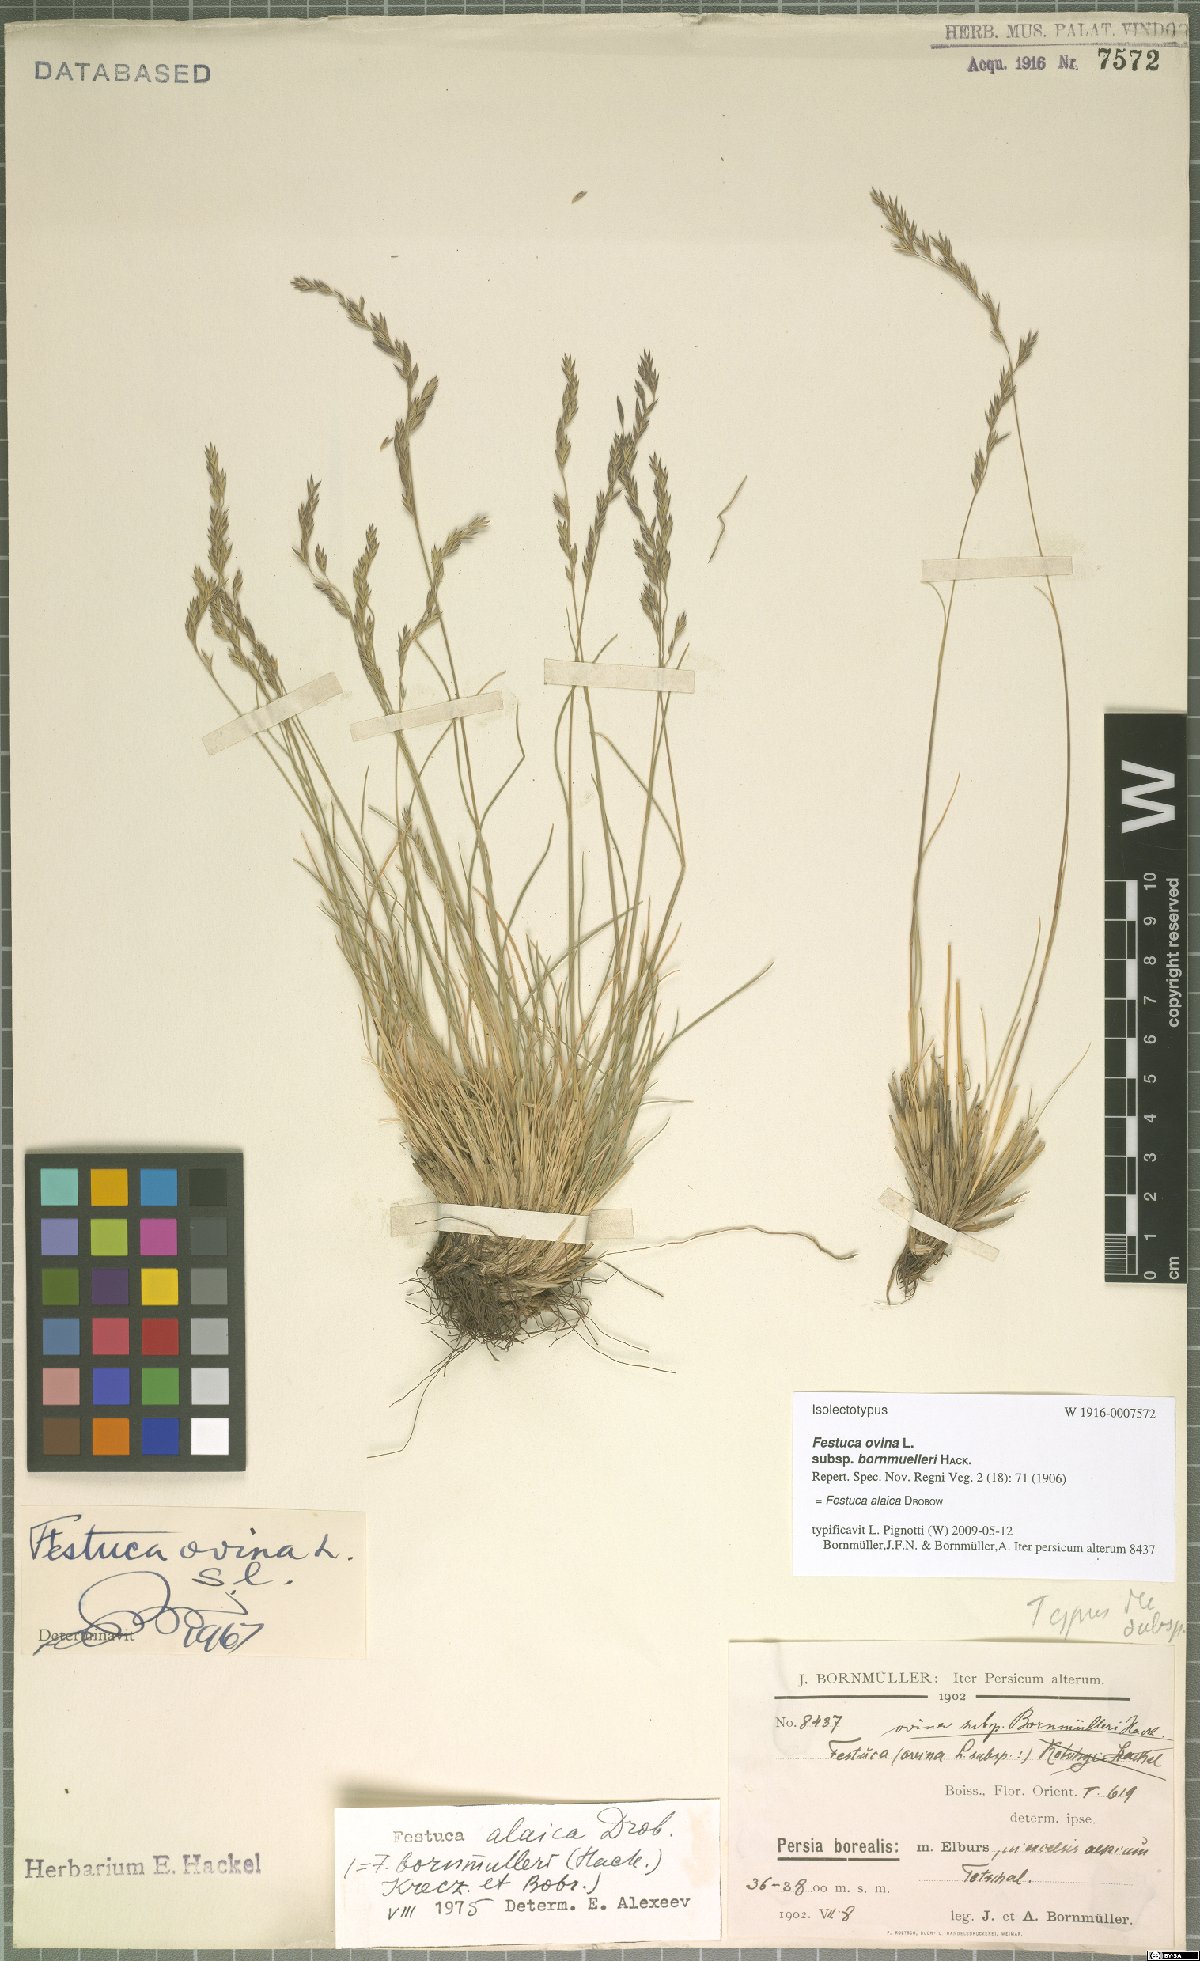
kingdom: Plantae
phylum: Tracheophyta
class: Liliopsida
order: Poales
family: Poaceae
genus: Festuca
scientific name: Festuca alaica
